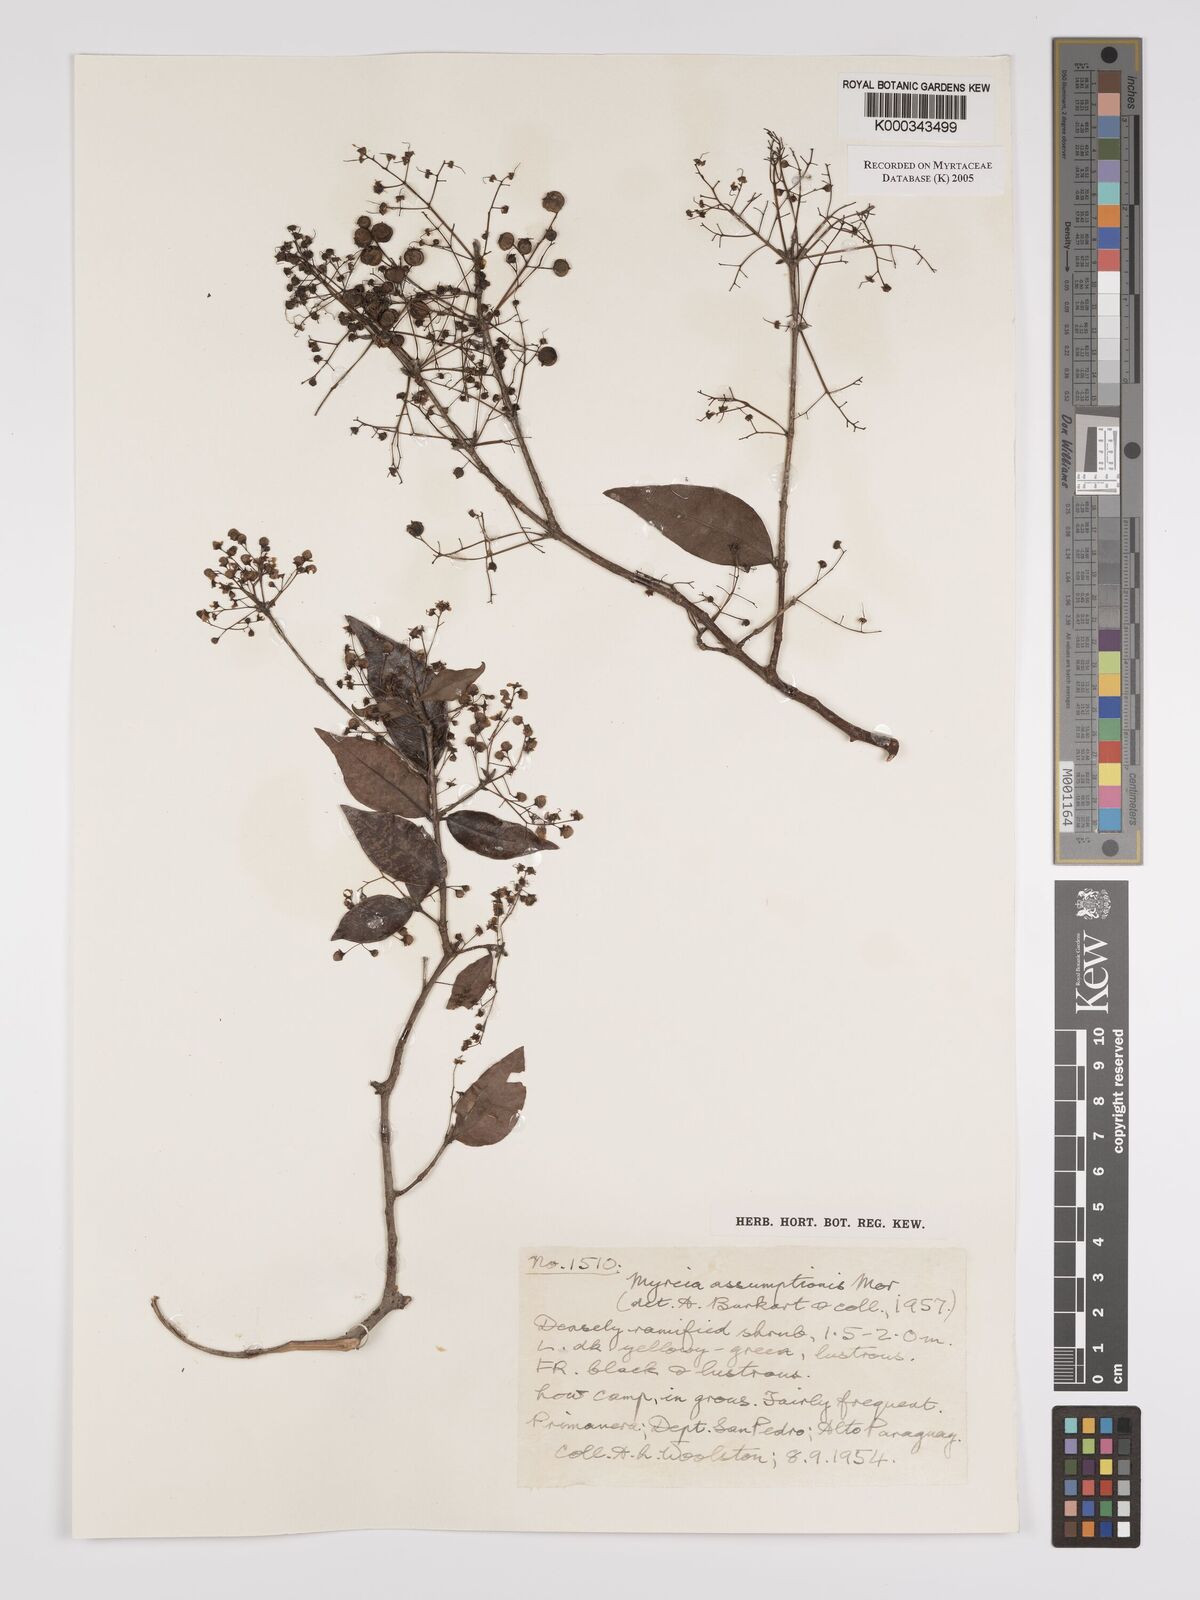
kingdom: Plantae
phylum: Tracheophyta
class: Magnoliopsida
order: Myrtales
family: Myrtaceae
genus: Myrcia
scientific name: Myrcia laruotteana
